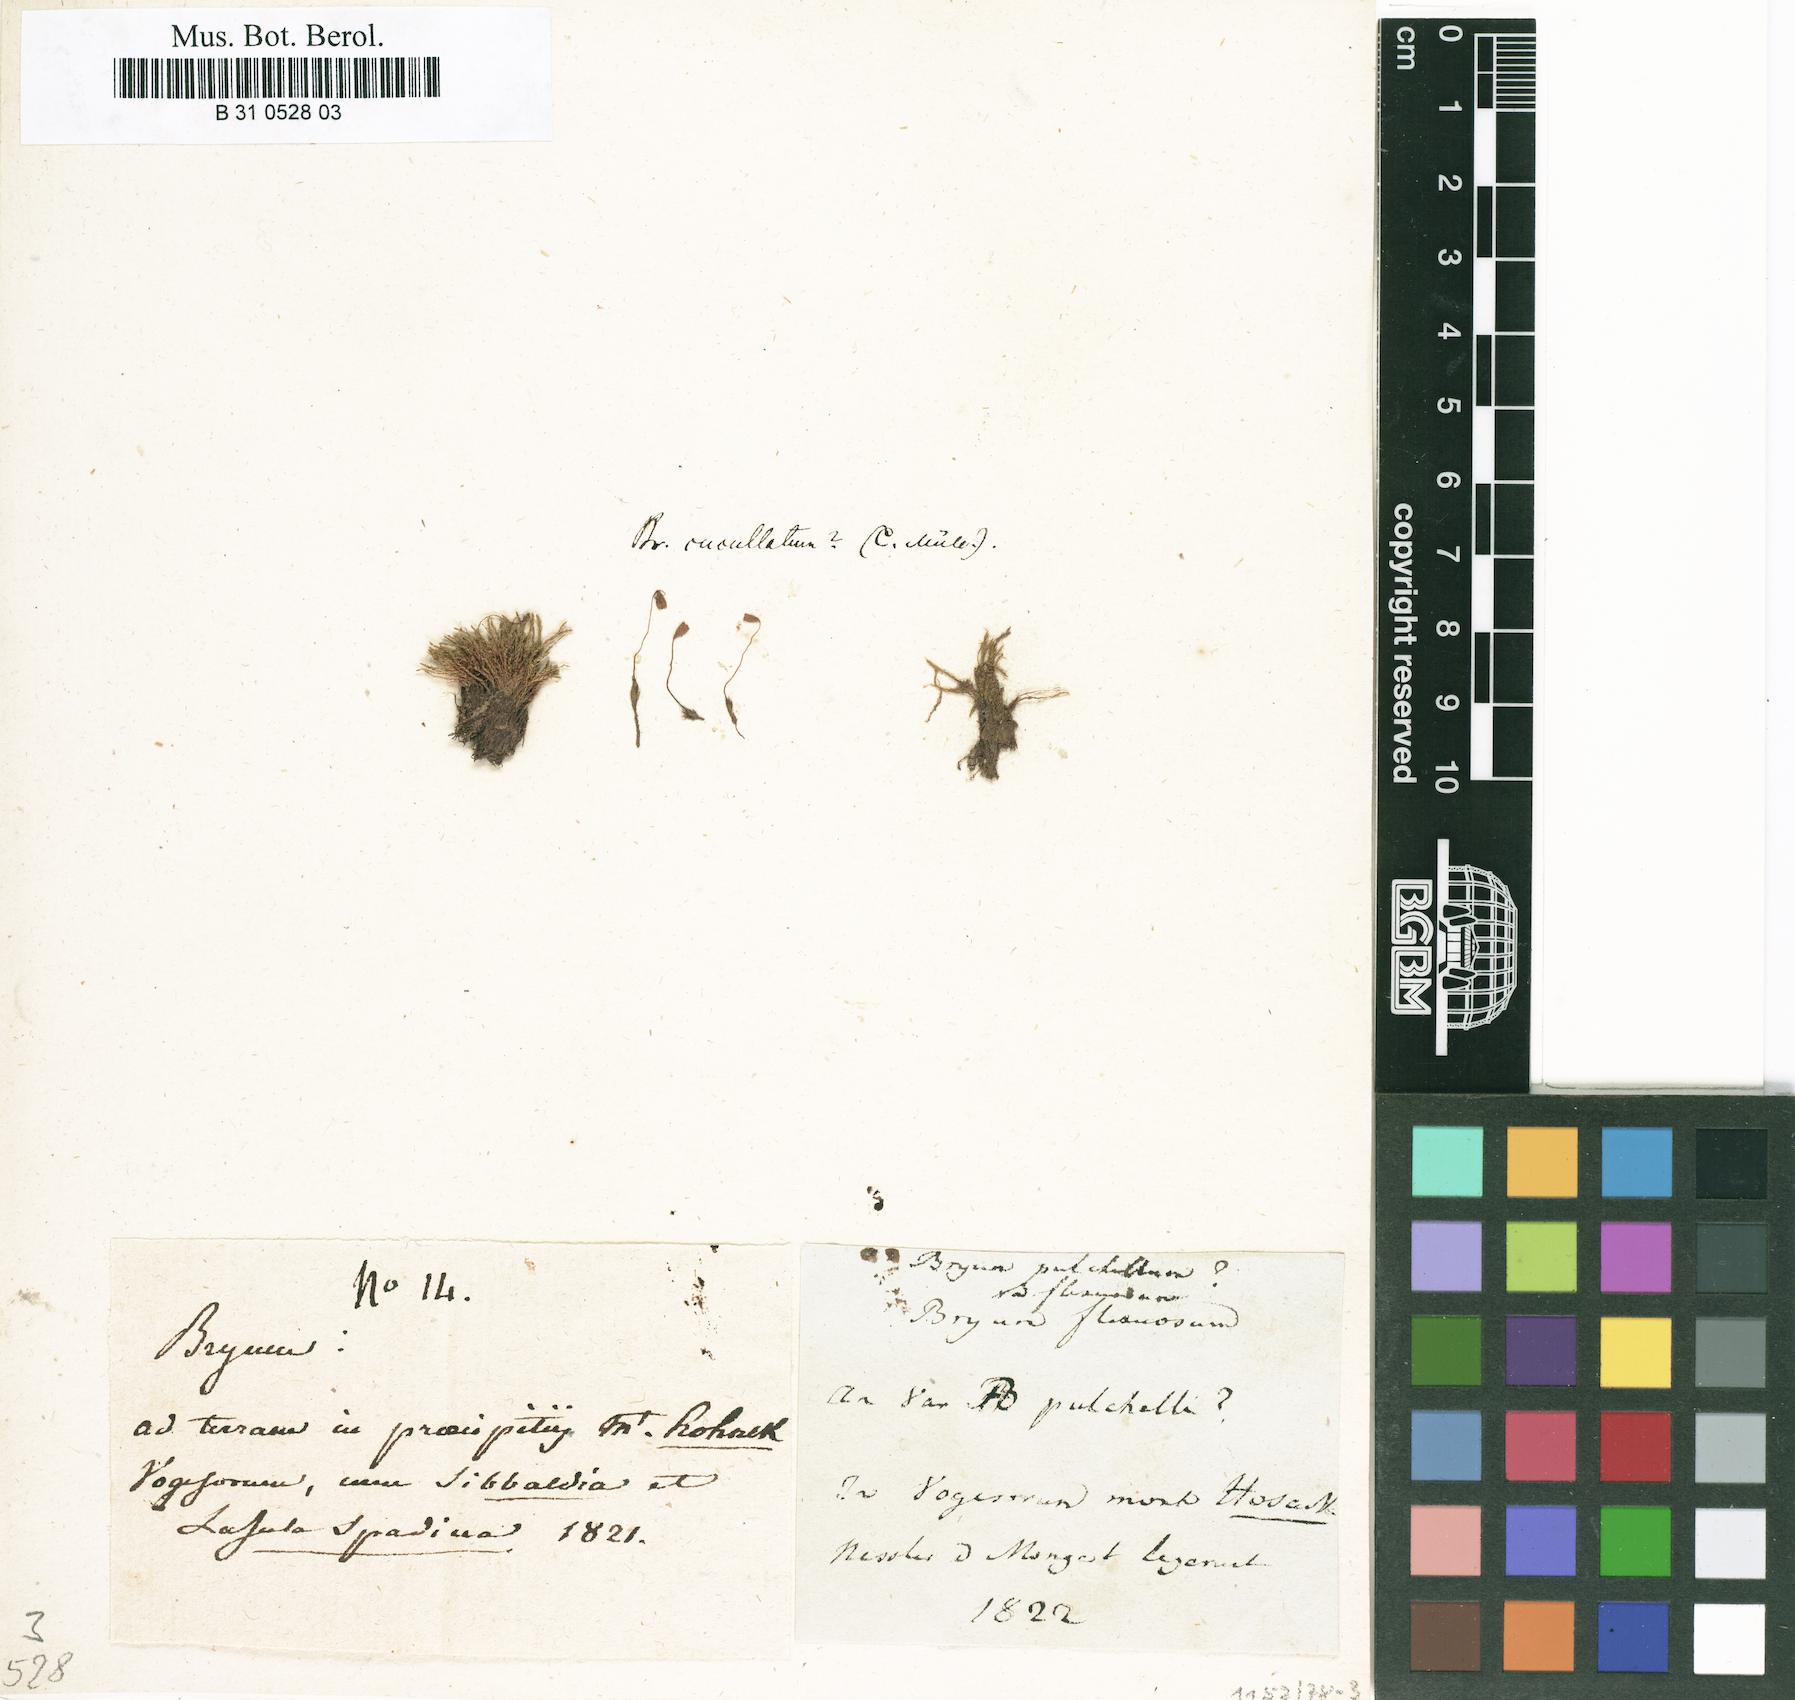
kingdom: Plantae
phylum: Bryophyta
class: Bryopsida
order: Bryales
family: Mniaceae
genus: Pohlia
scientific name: Pohlia lescuriana
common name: Pear-shaped nodding moss
